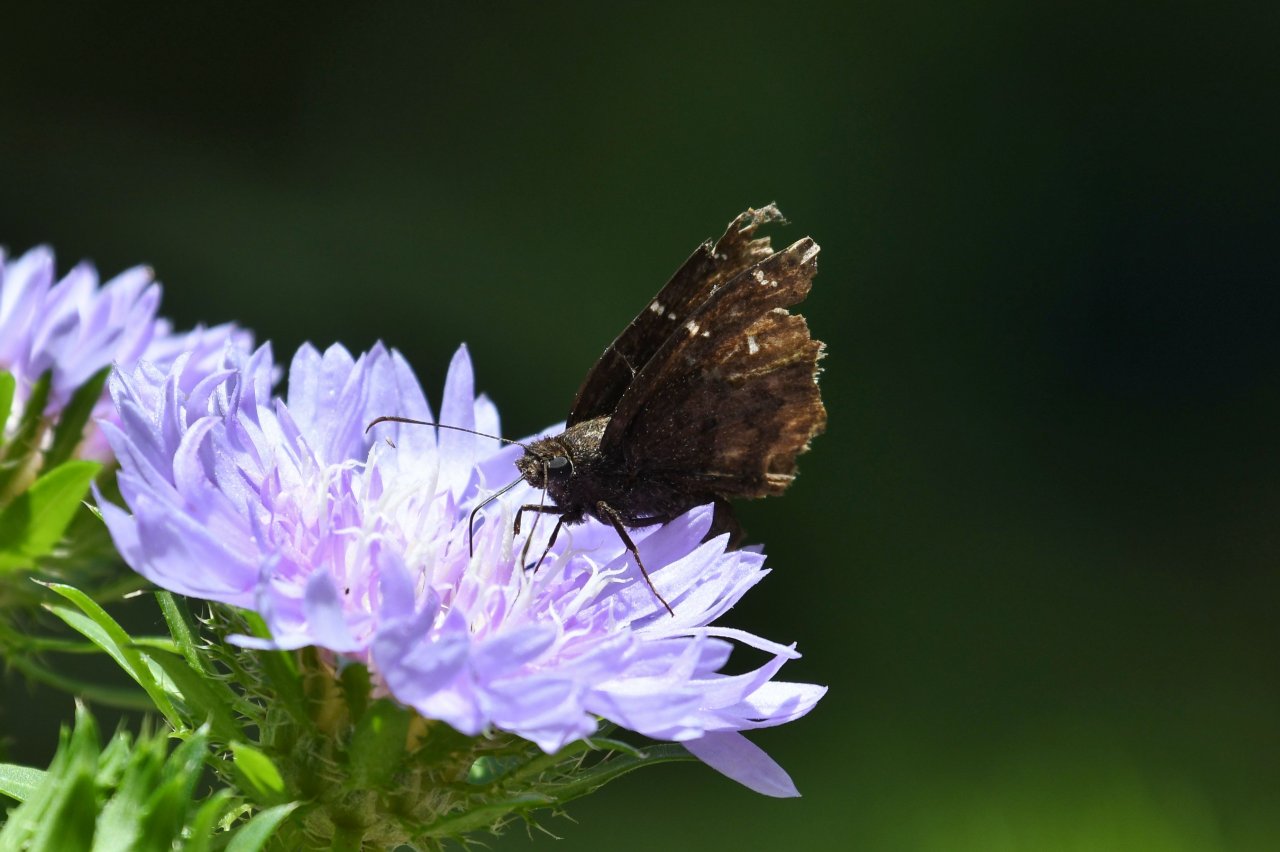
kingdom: Animalia
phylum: Arthropoda
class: Insecta
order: Lepidoptera
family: Hesperiidae
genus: Autochton
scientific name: Autochton
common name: Northern Cloudywing
